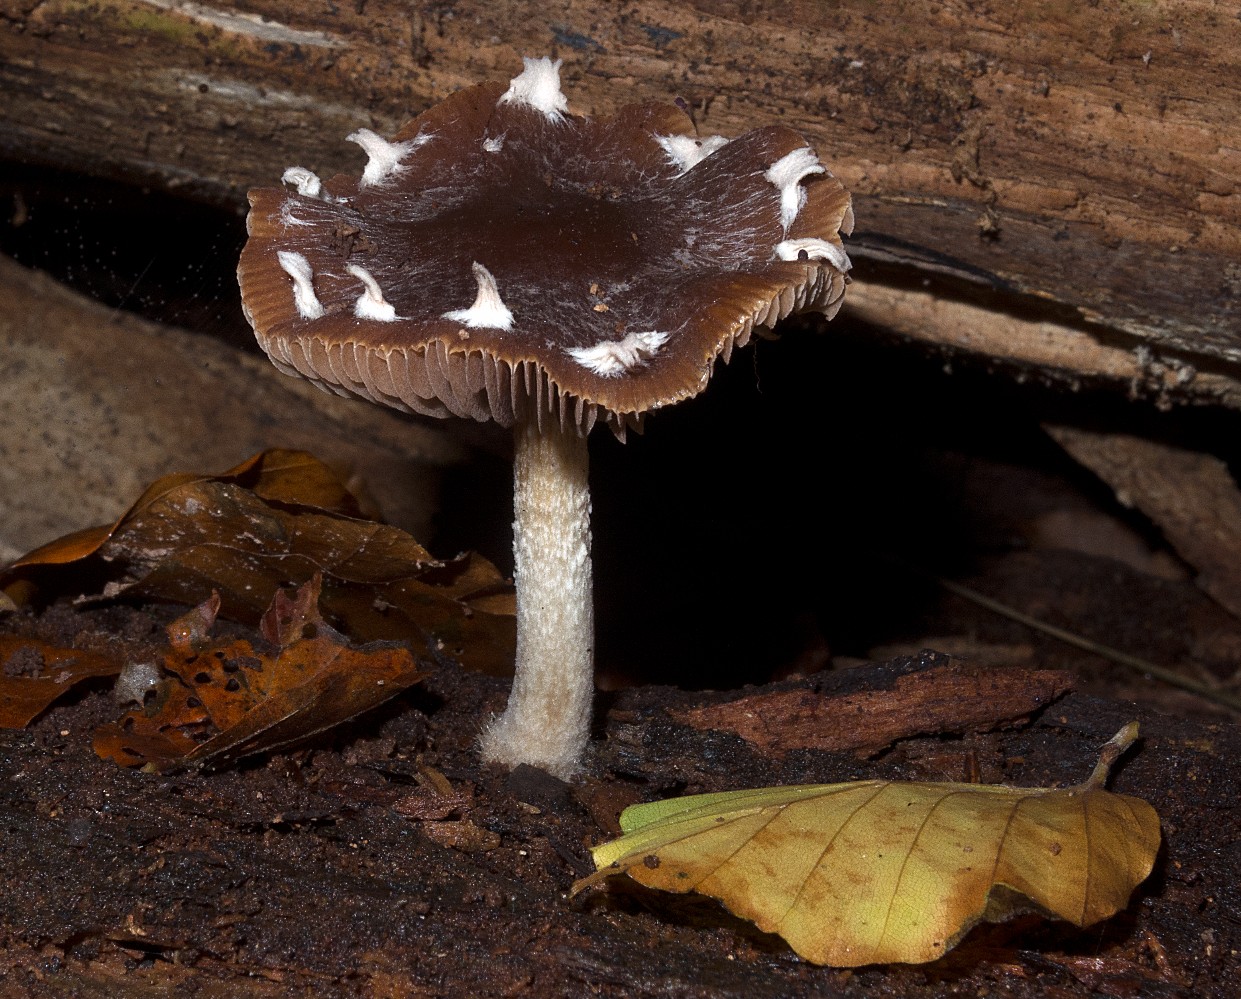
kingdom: Fungi
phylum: Basidiomycota
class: Agaricomycetes
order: Agaricales
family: Psathyrellaceae
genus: Psathyrella
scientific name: Psathyrella pseudocasca
